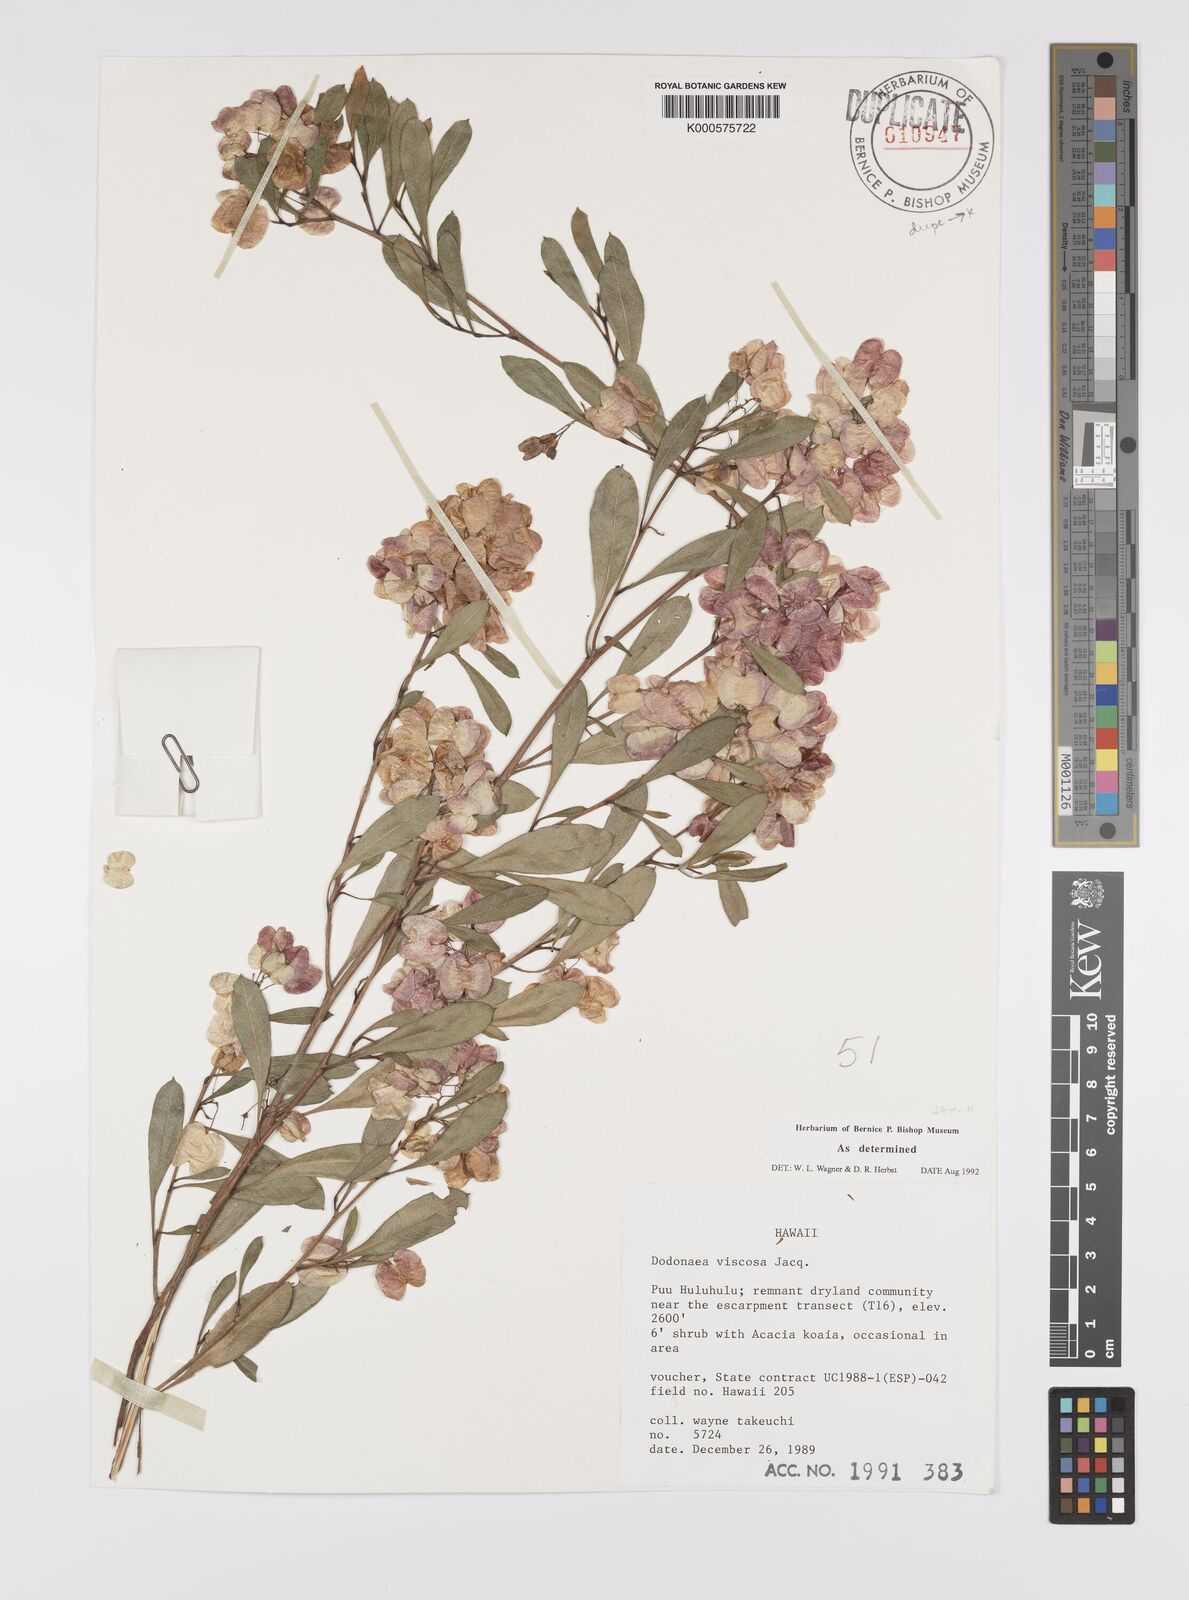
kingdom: Plantae
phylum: Tracheophyta
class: Magnoliopsida
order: Sapindales
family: Sapindaceae
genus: Dodonaea
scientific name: Dodonaea viscosa
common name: Hopbush
